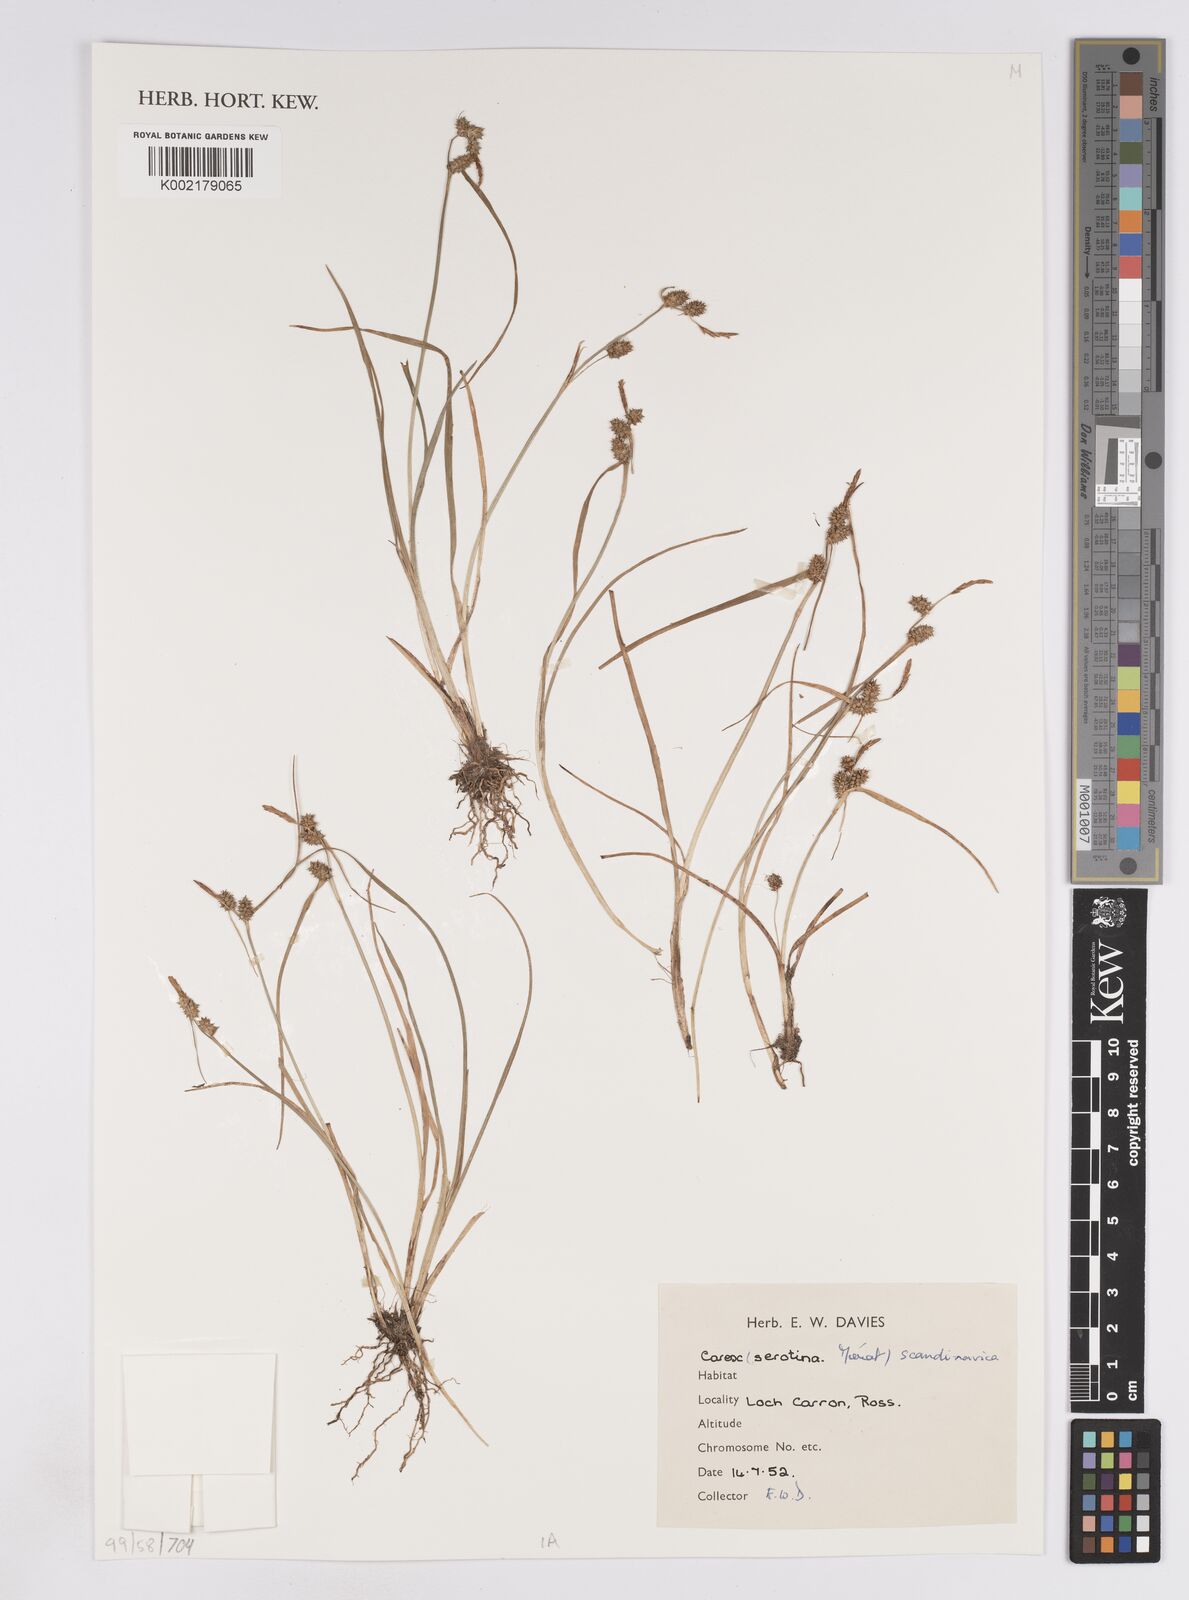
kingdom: Plantae
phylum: Tracheophyta
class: Liliopsida
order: Poales
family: Cyperaceae
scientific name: Cyperaceae
